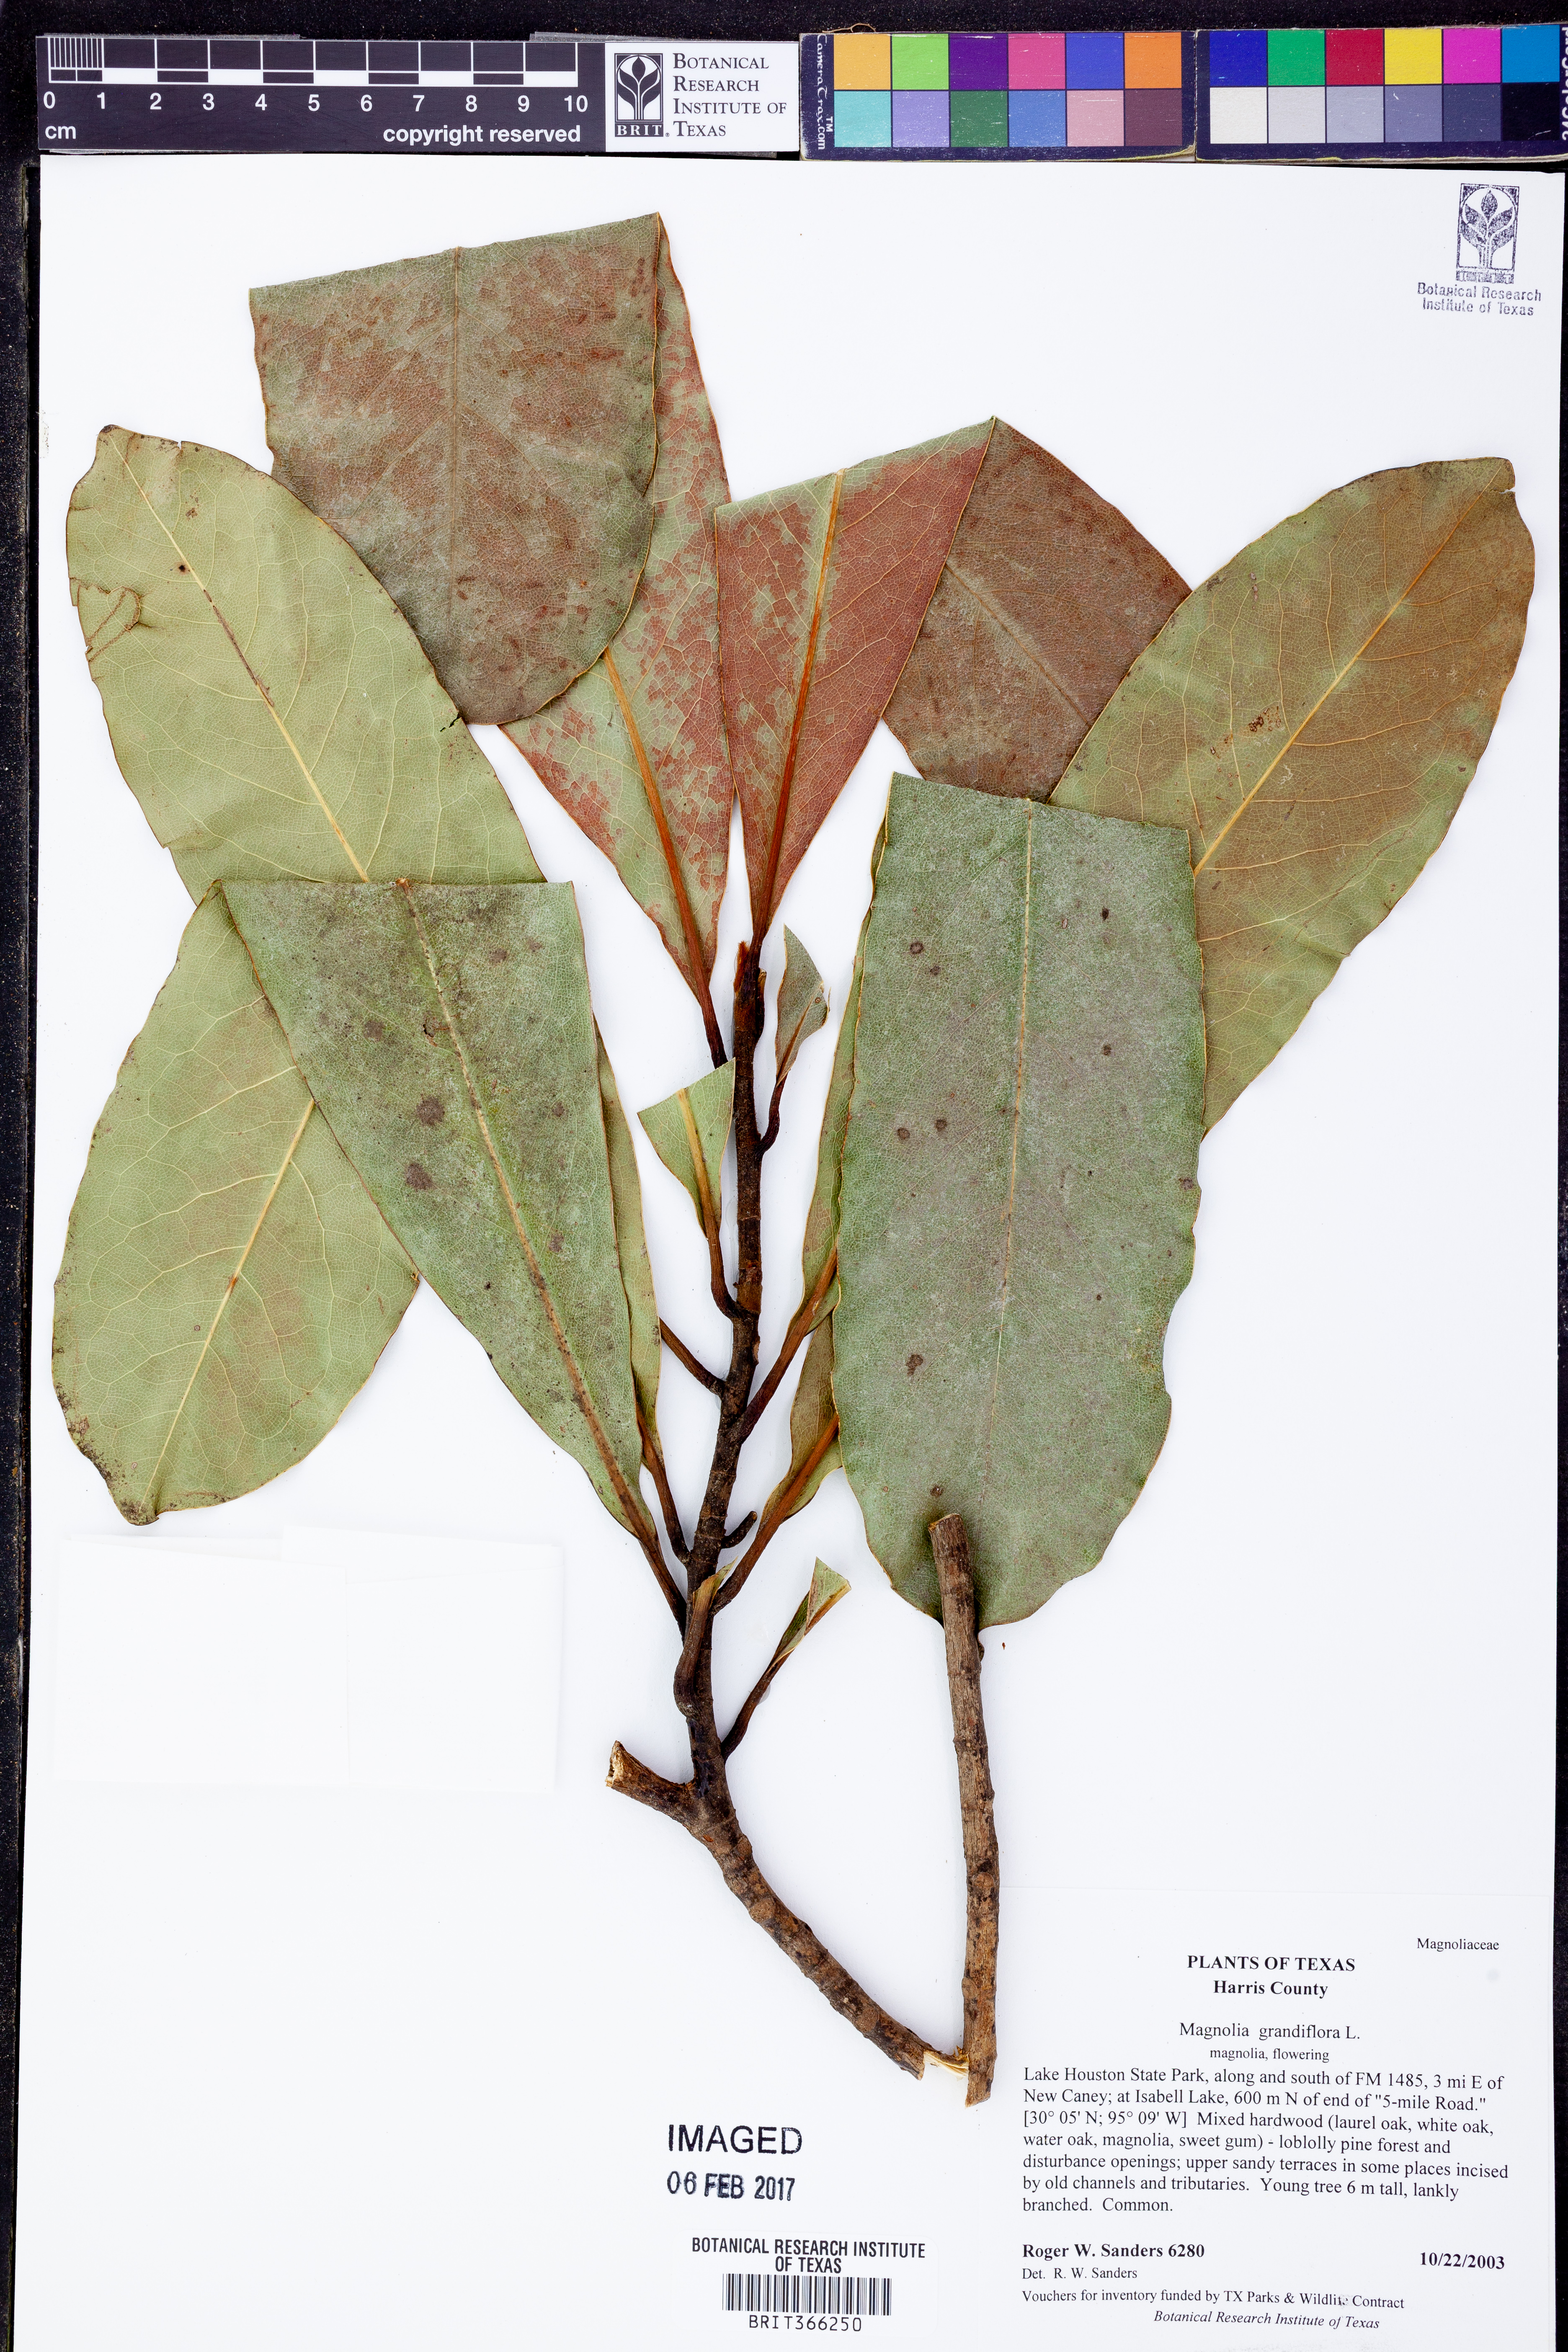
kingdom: Plantae
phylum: Tracheophyta
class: Magnoliopsida
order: Magnoliales
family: Magnoliaceae
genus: Magnolia
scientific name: Magnolia grandiflora
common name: Southern magnolia
